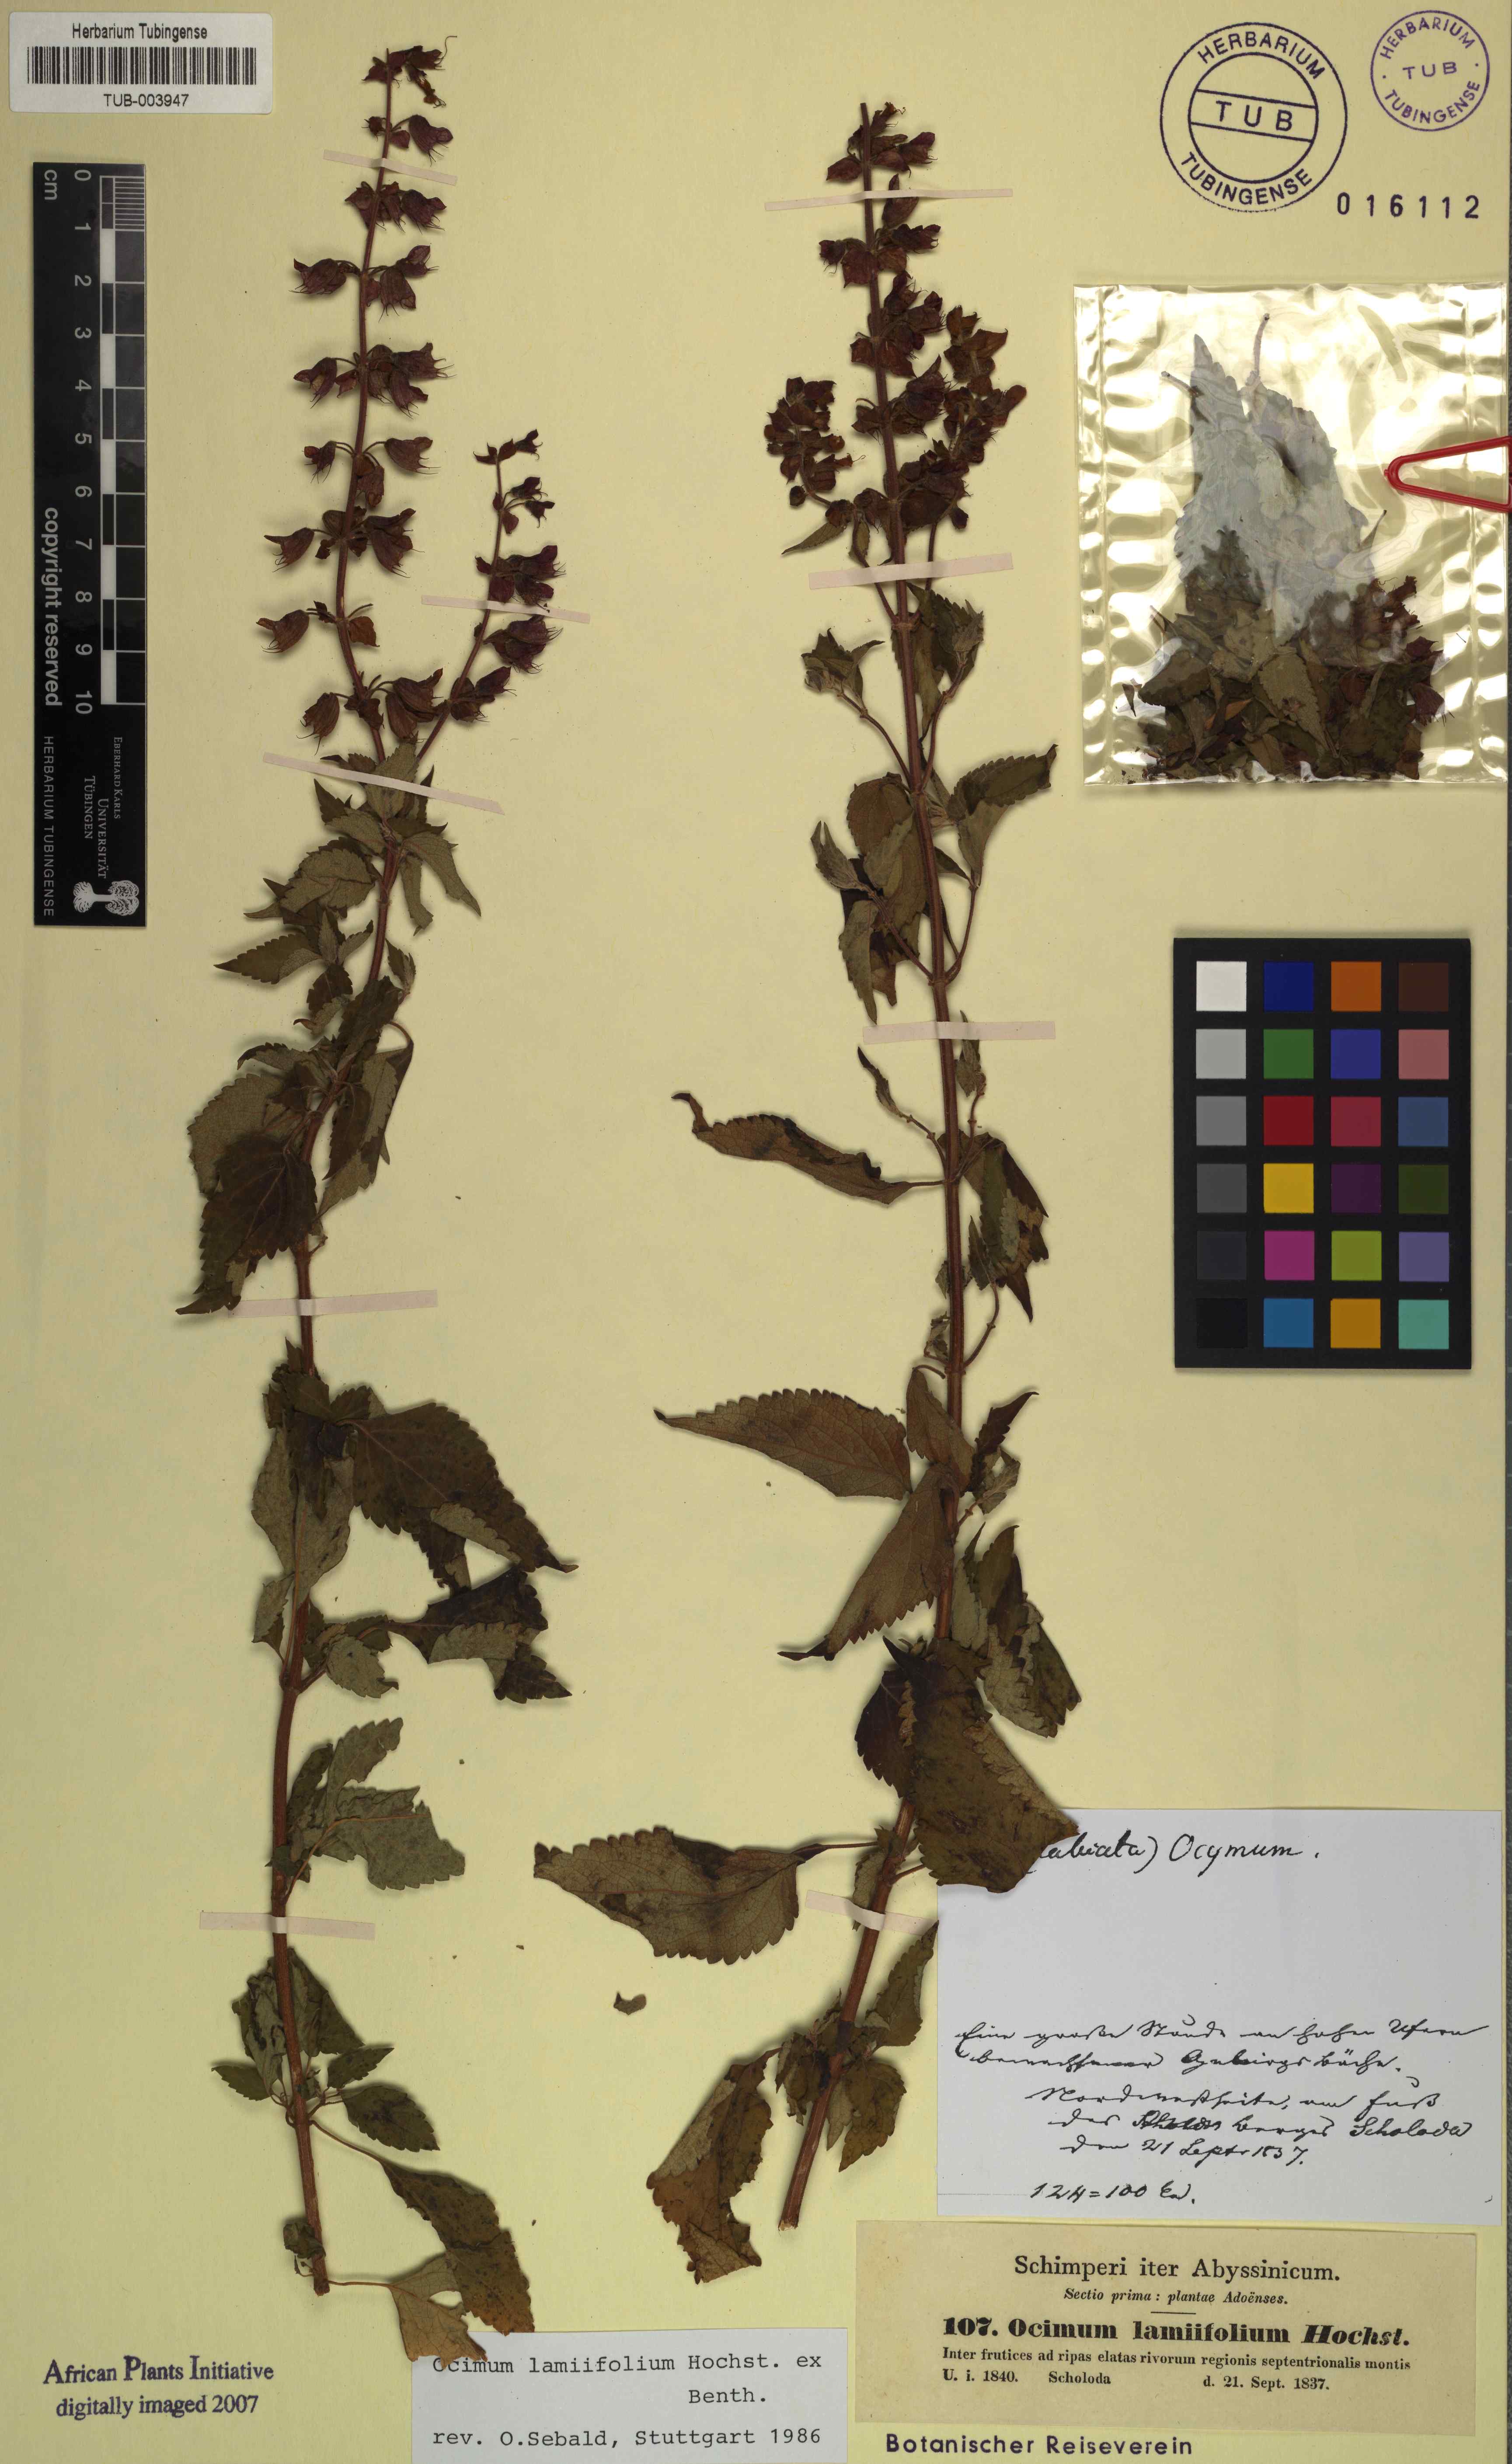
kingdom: Plantae
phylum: Tracheophyta
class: Magnoliopsida
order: Lamiales
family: Lamiaceae
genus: Ocimum
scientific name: Ocimum lamiifolium
